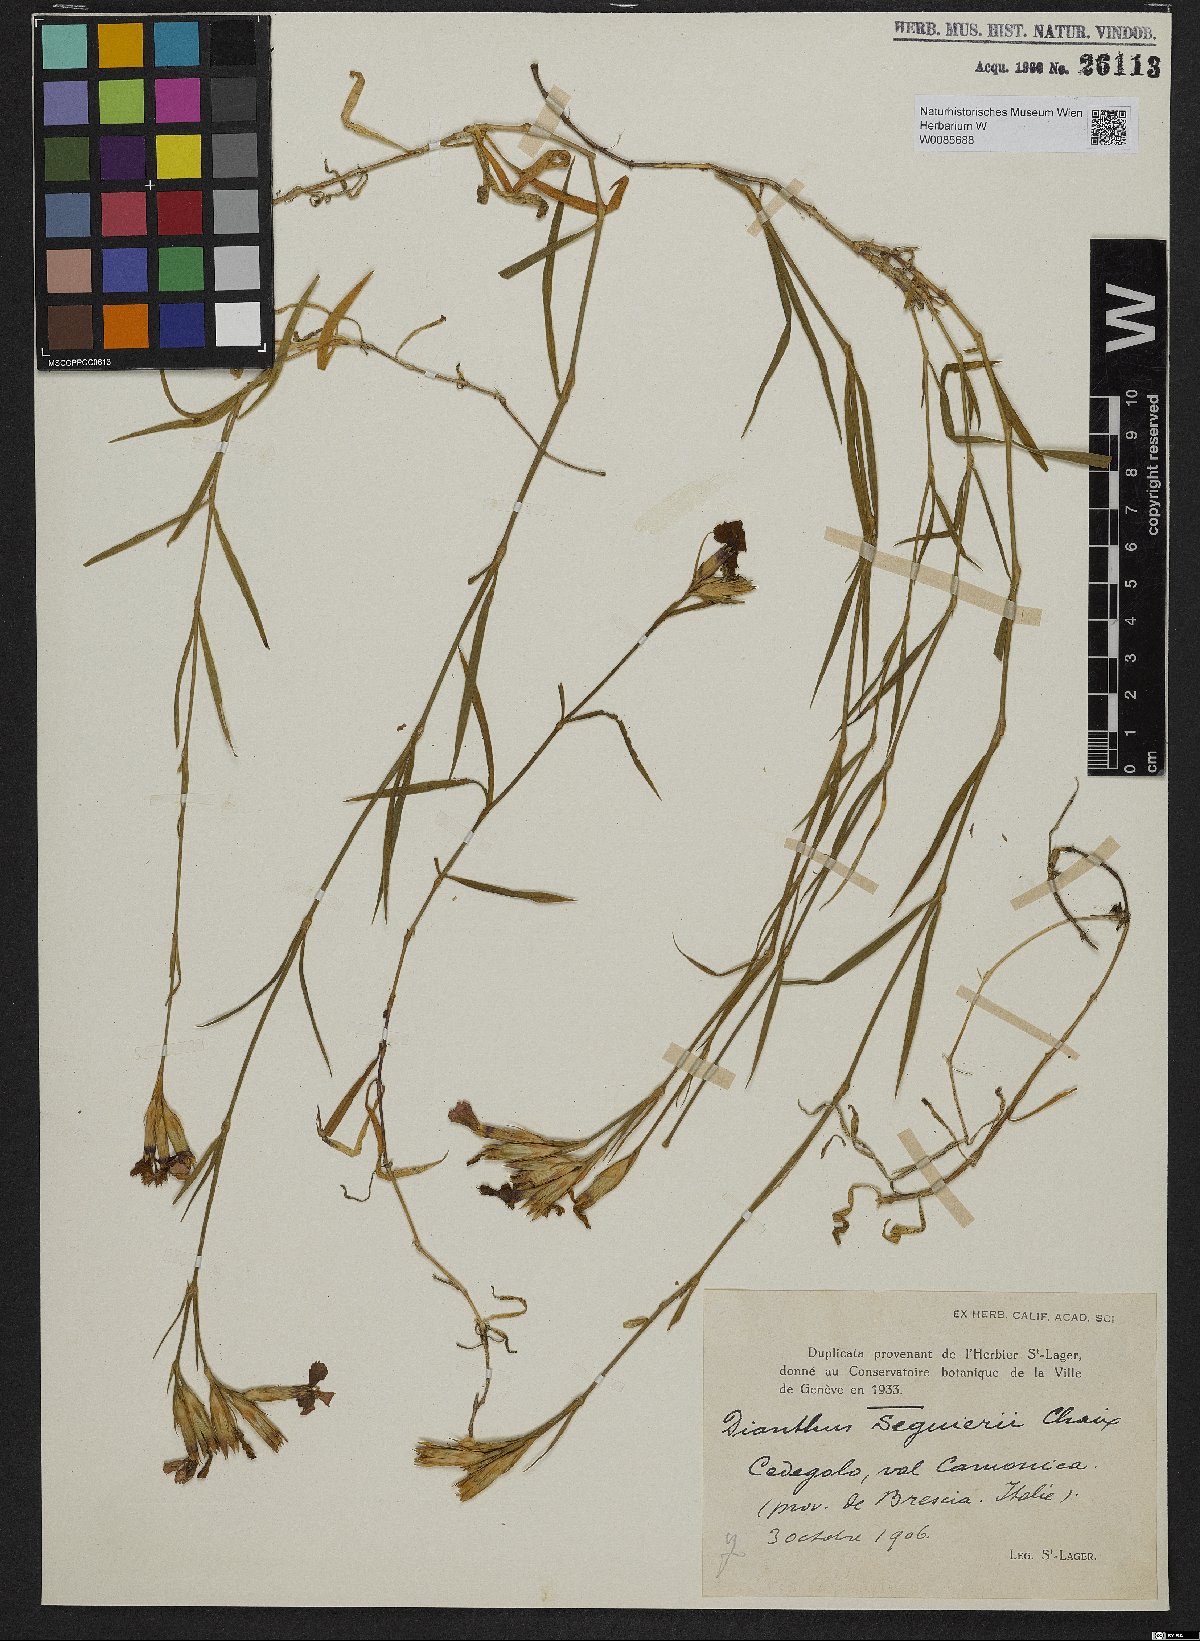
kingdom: Plantae
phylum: Tracheophyta
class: Magnoliopsida
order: Caryophyllales
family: Caryophyllaceae
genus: Dianthus
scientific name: Dianthus seguieri
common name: Ragged pink
